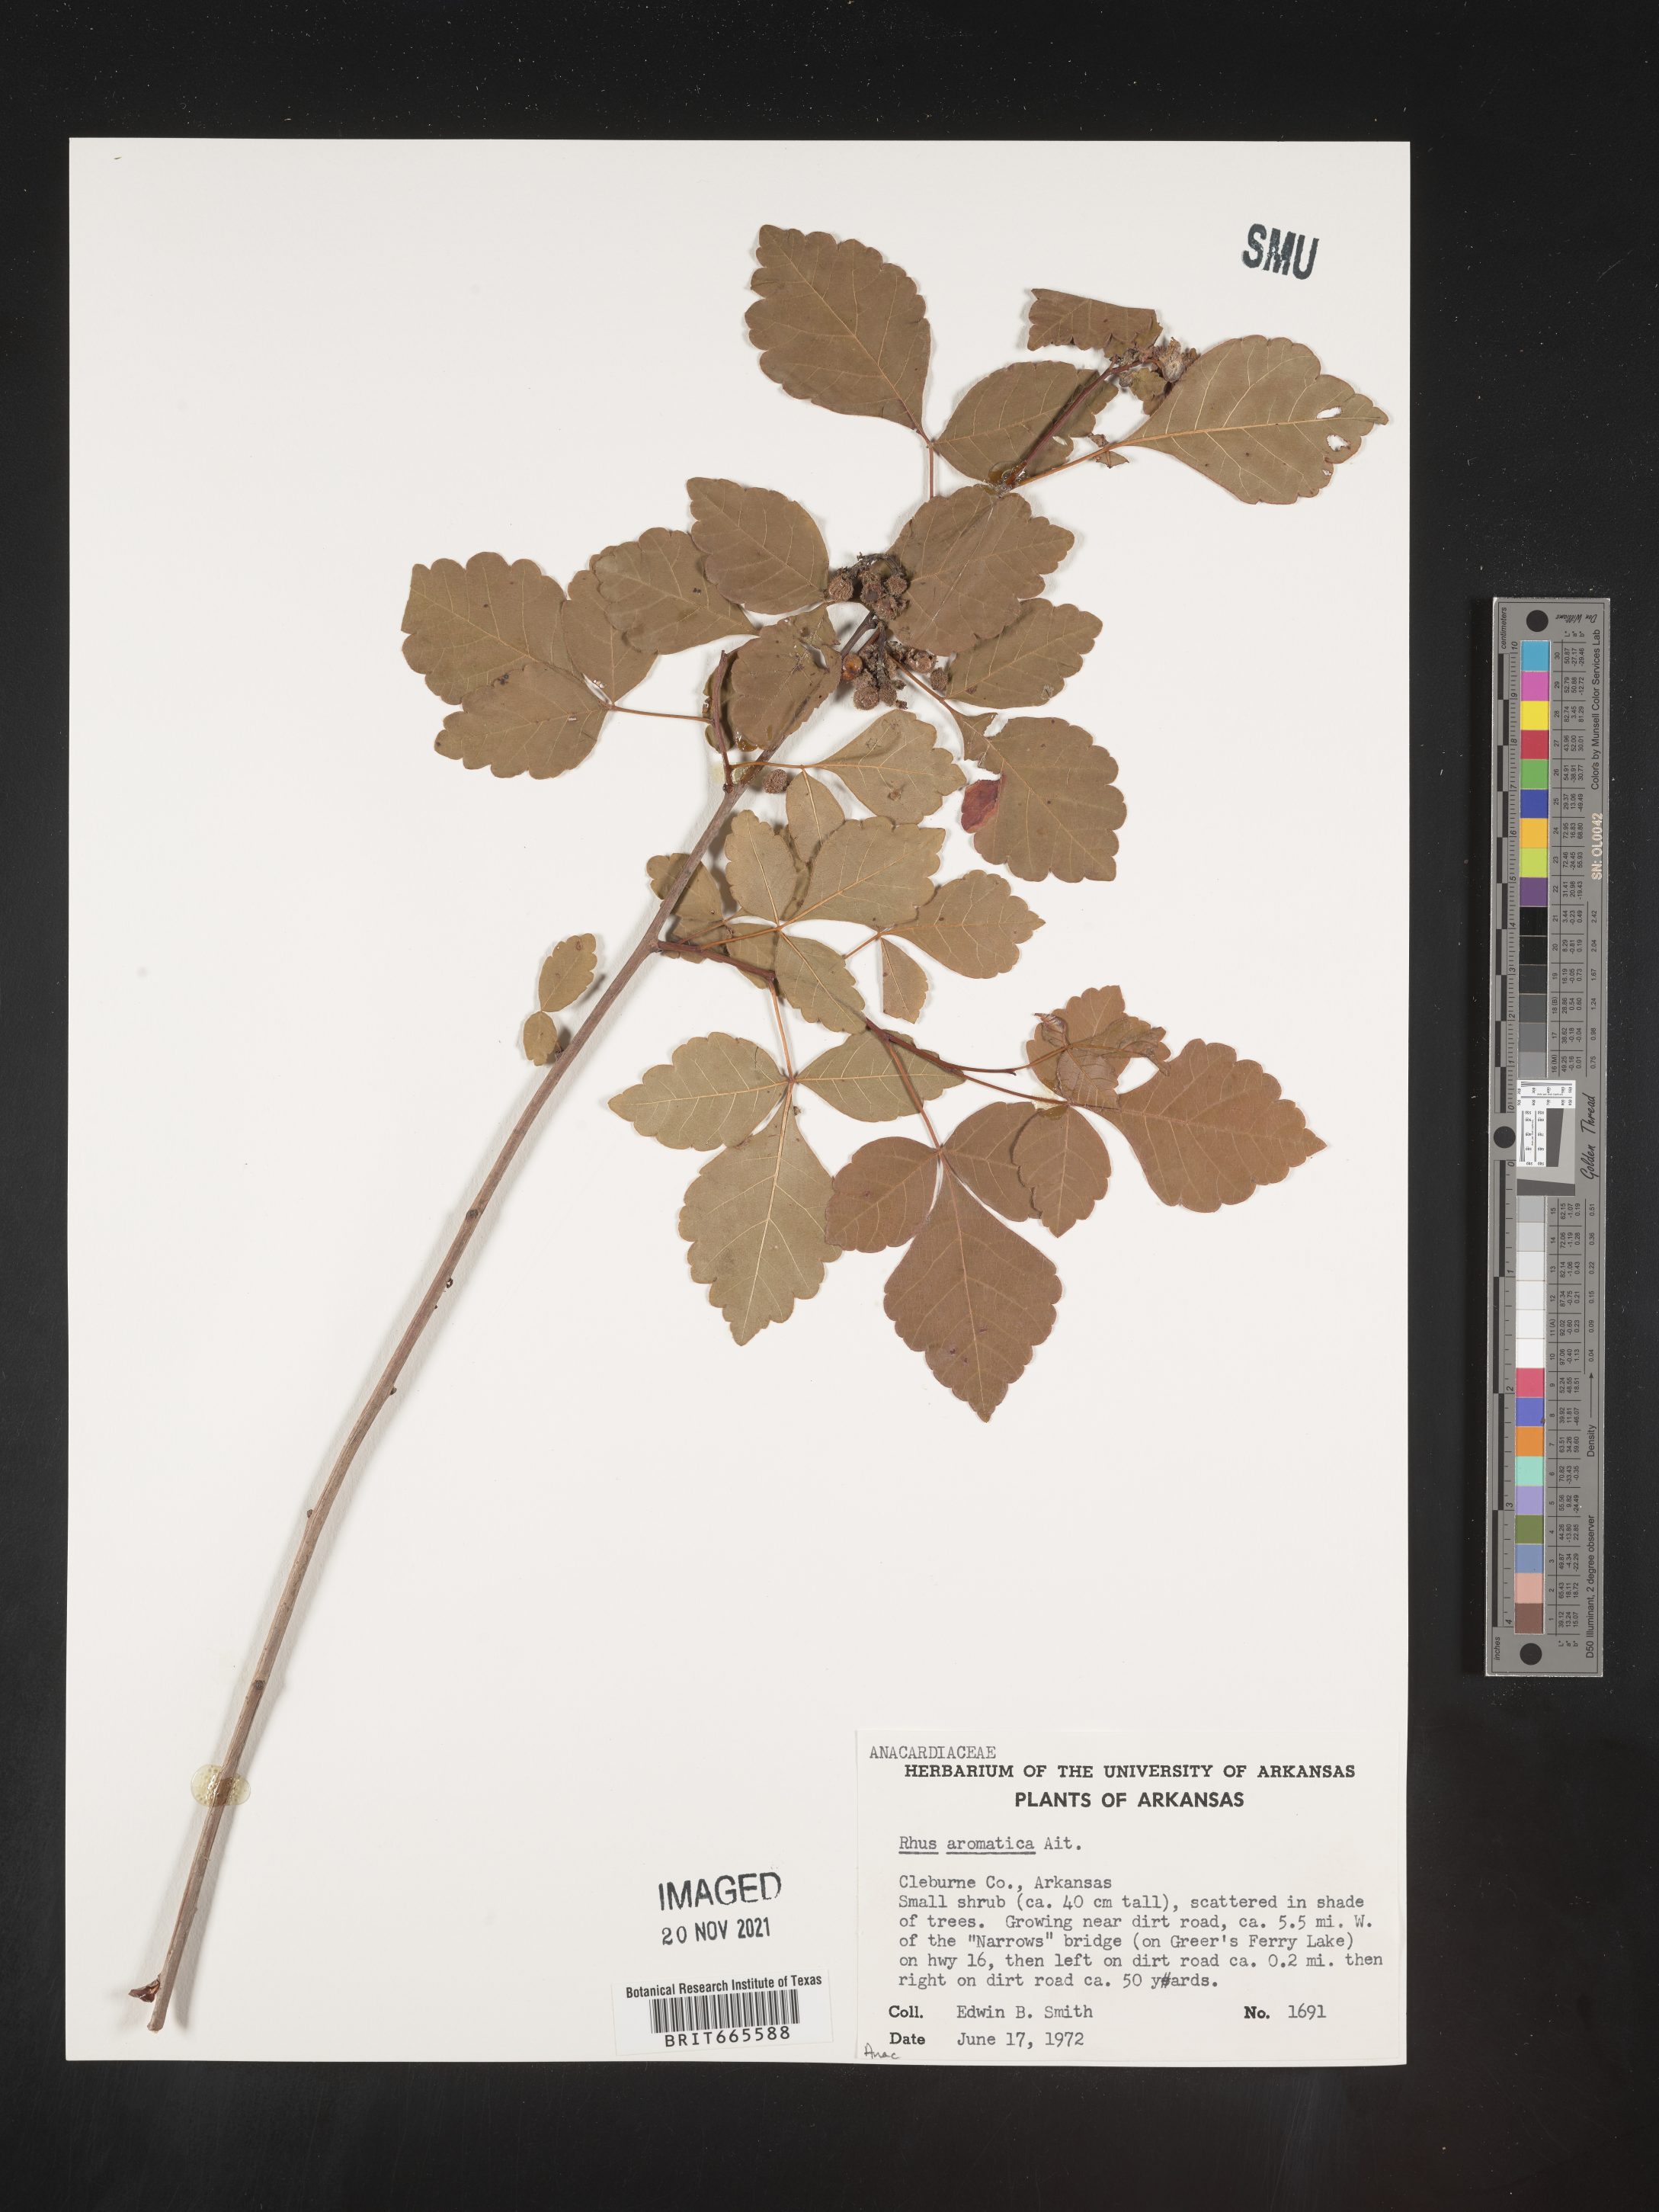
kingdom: Plantae
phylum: Tracheophyta
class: Magnoliopsida
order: Sapindales
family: Anacardiaceae
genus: Rhus
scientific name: Rhus aromatica
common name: Aromatic sumac
